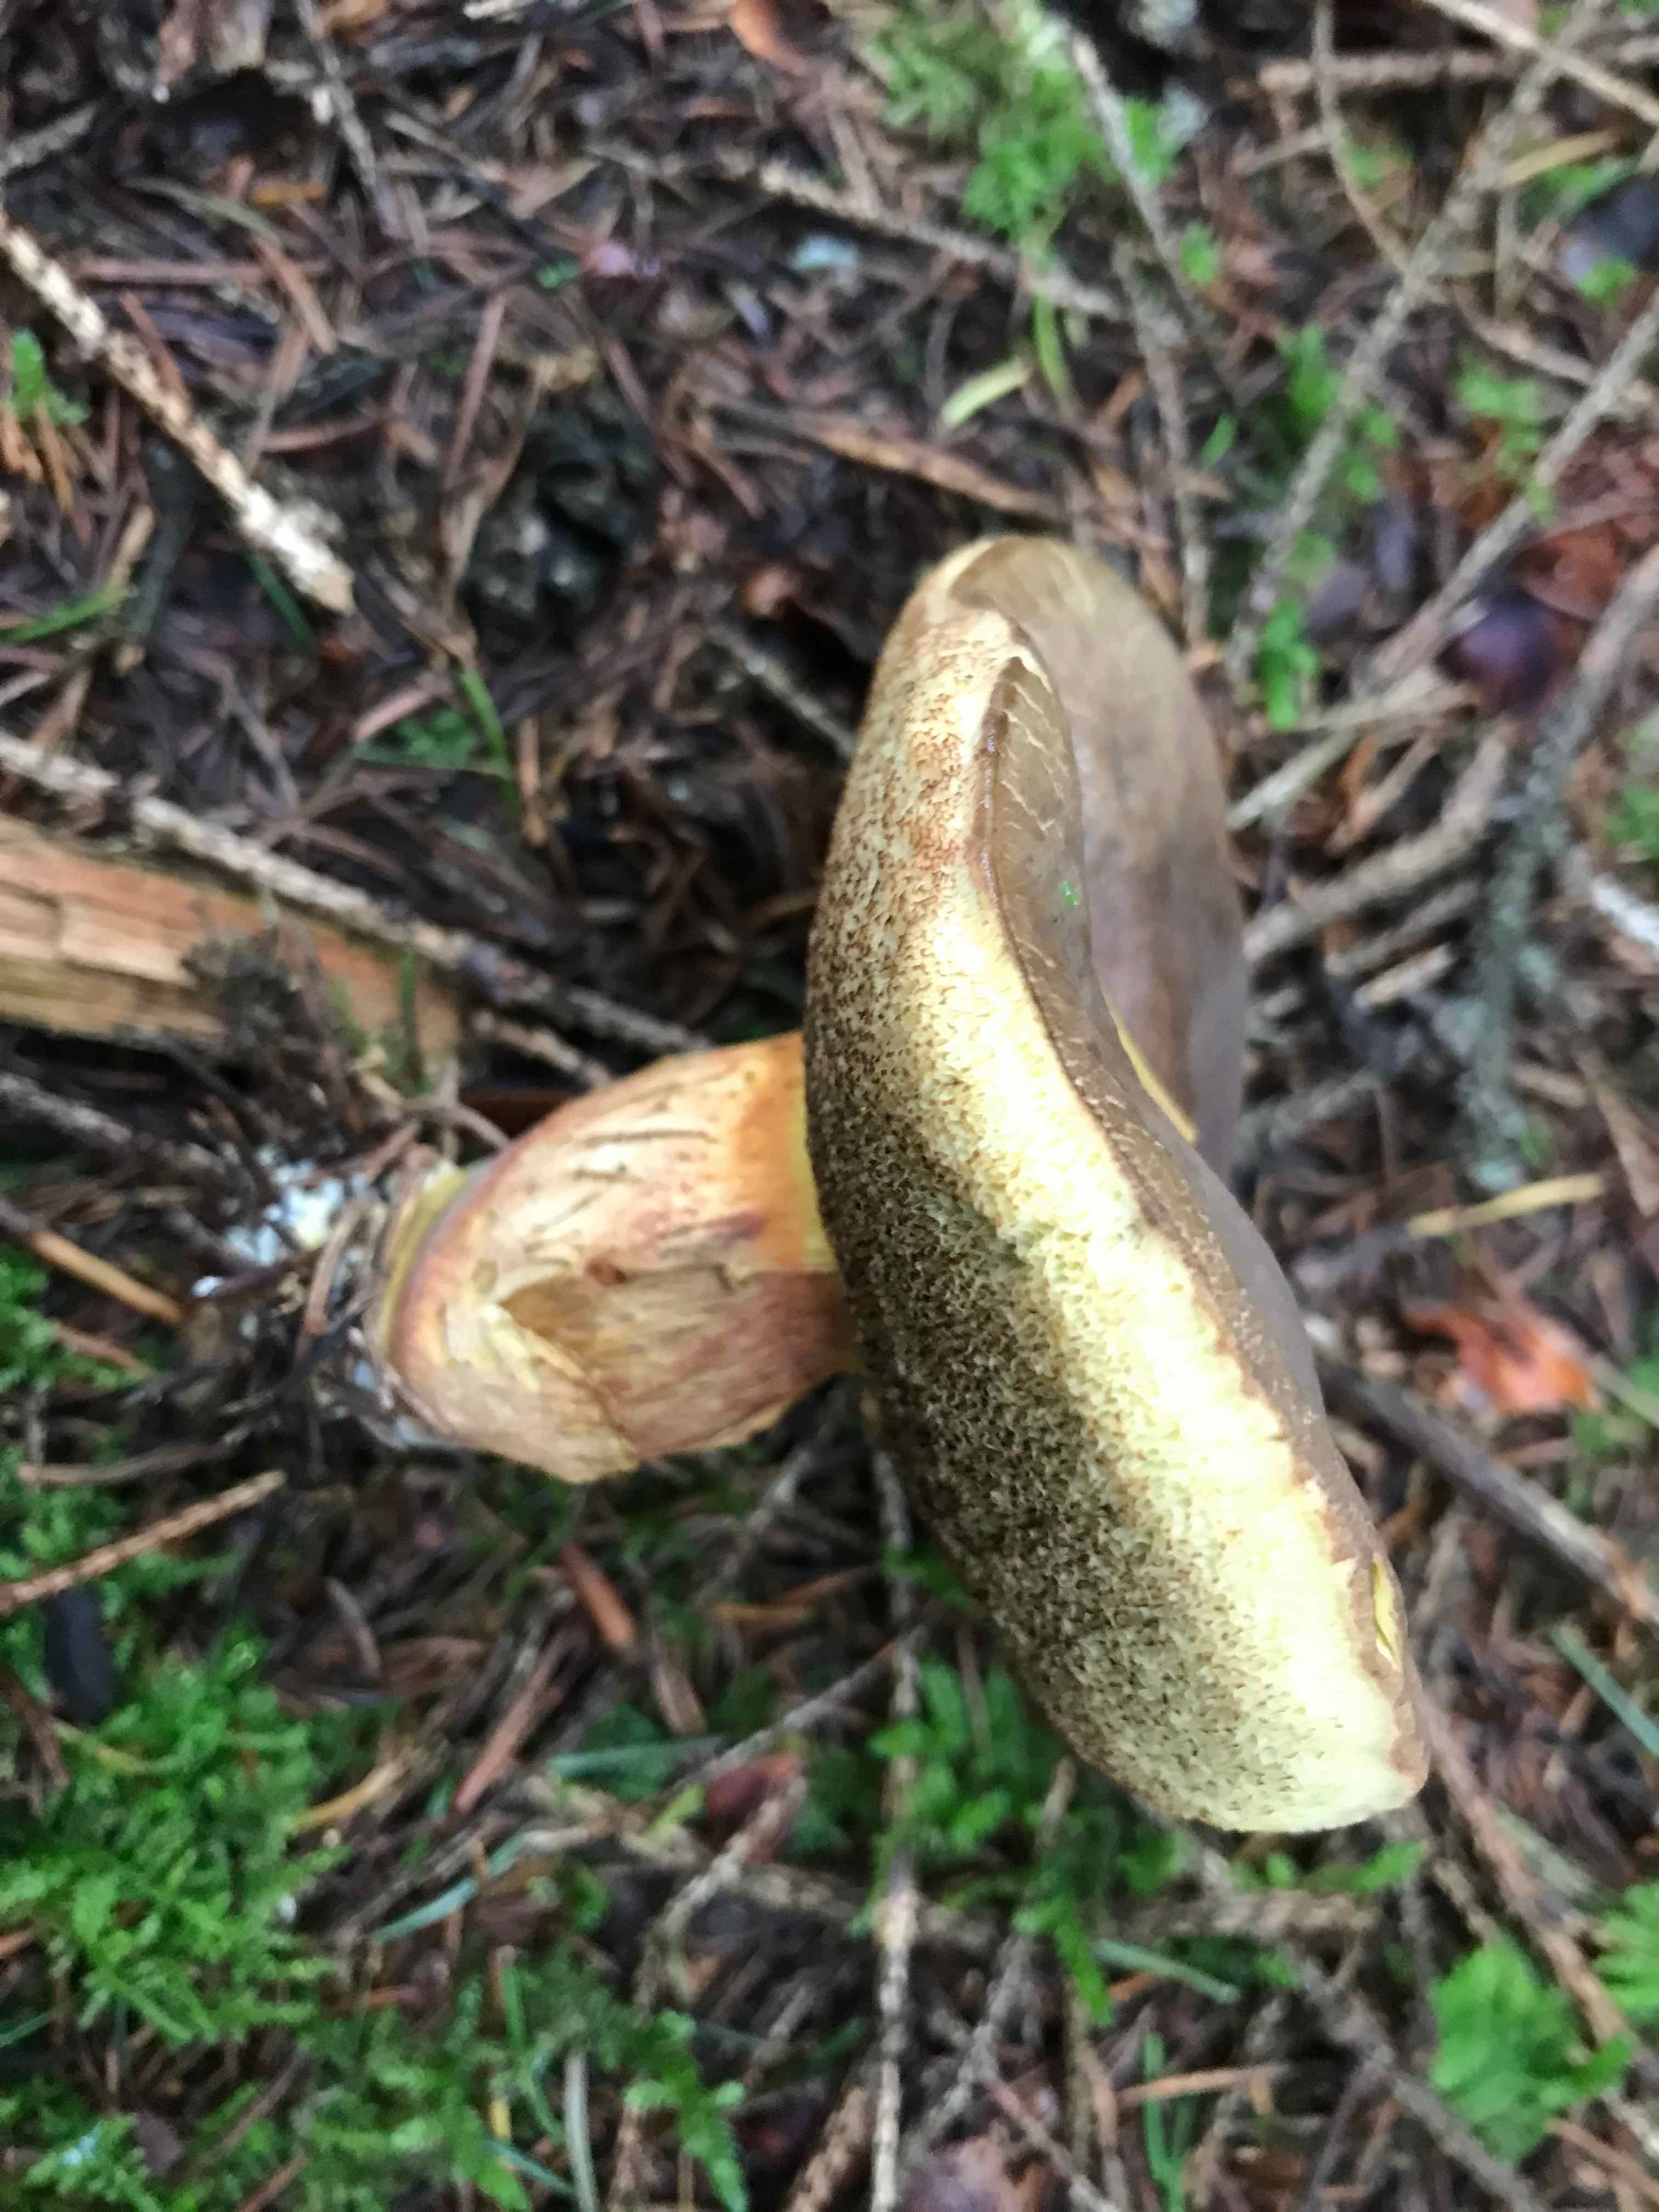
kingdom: Fungi
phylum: Basidiomycota
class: Agaricomycetes
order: Boletales
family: Boletaceae
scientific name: Boletaceae
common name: rørhatfamilien
